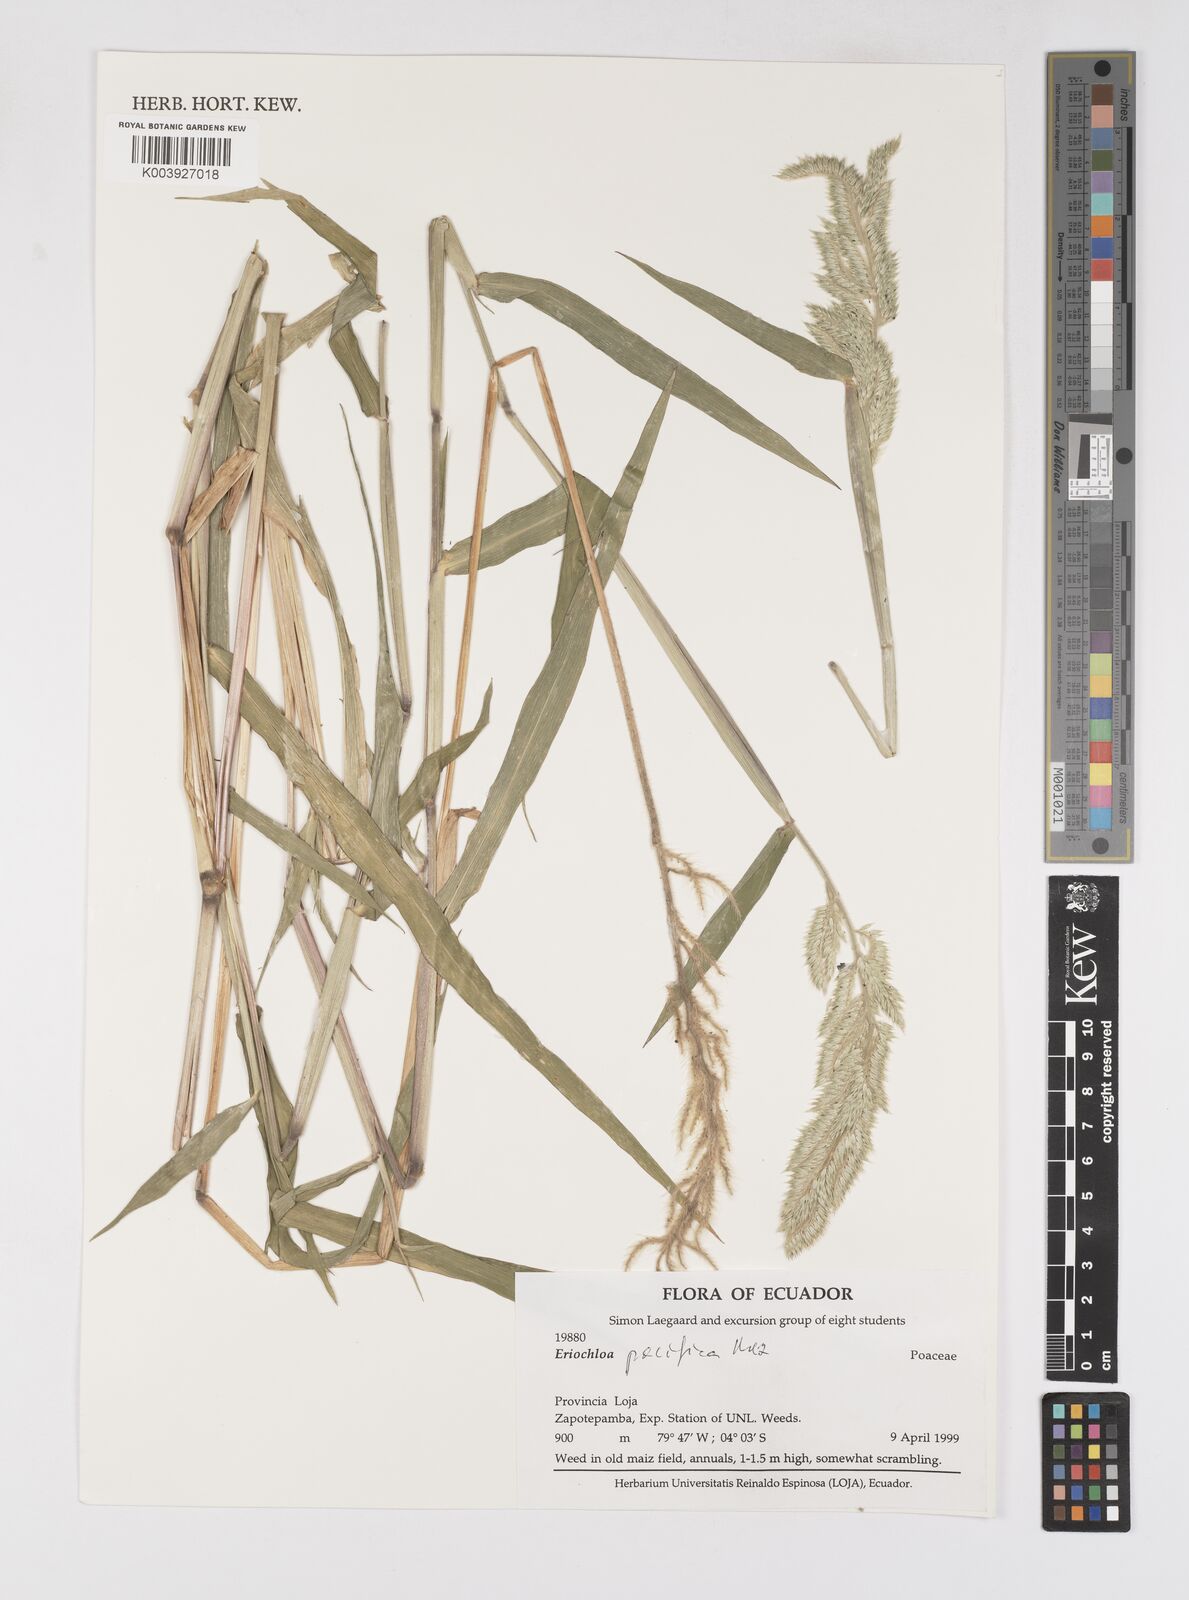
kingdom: Plantae
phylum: Tracheophyta
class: Liliopsida
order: Poales
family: Poaceae
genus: Eriochloa
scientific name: Eriochloa pacifica
